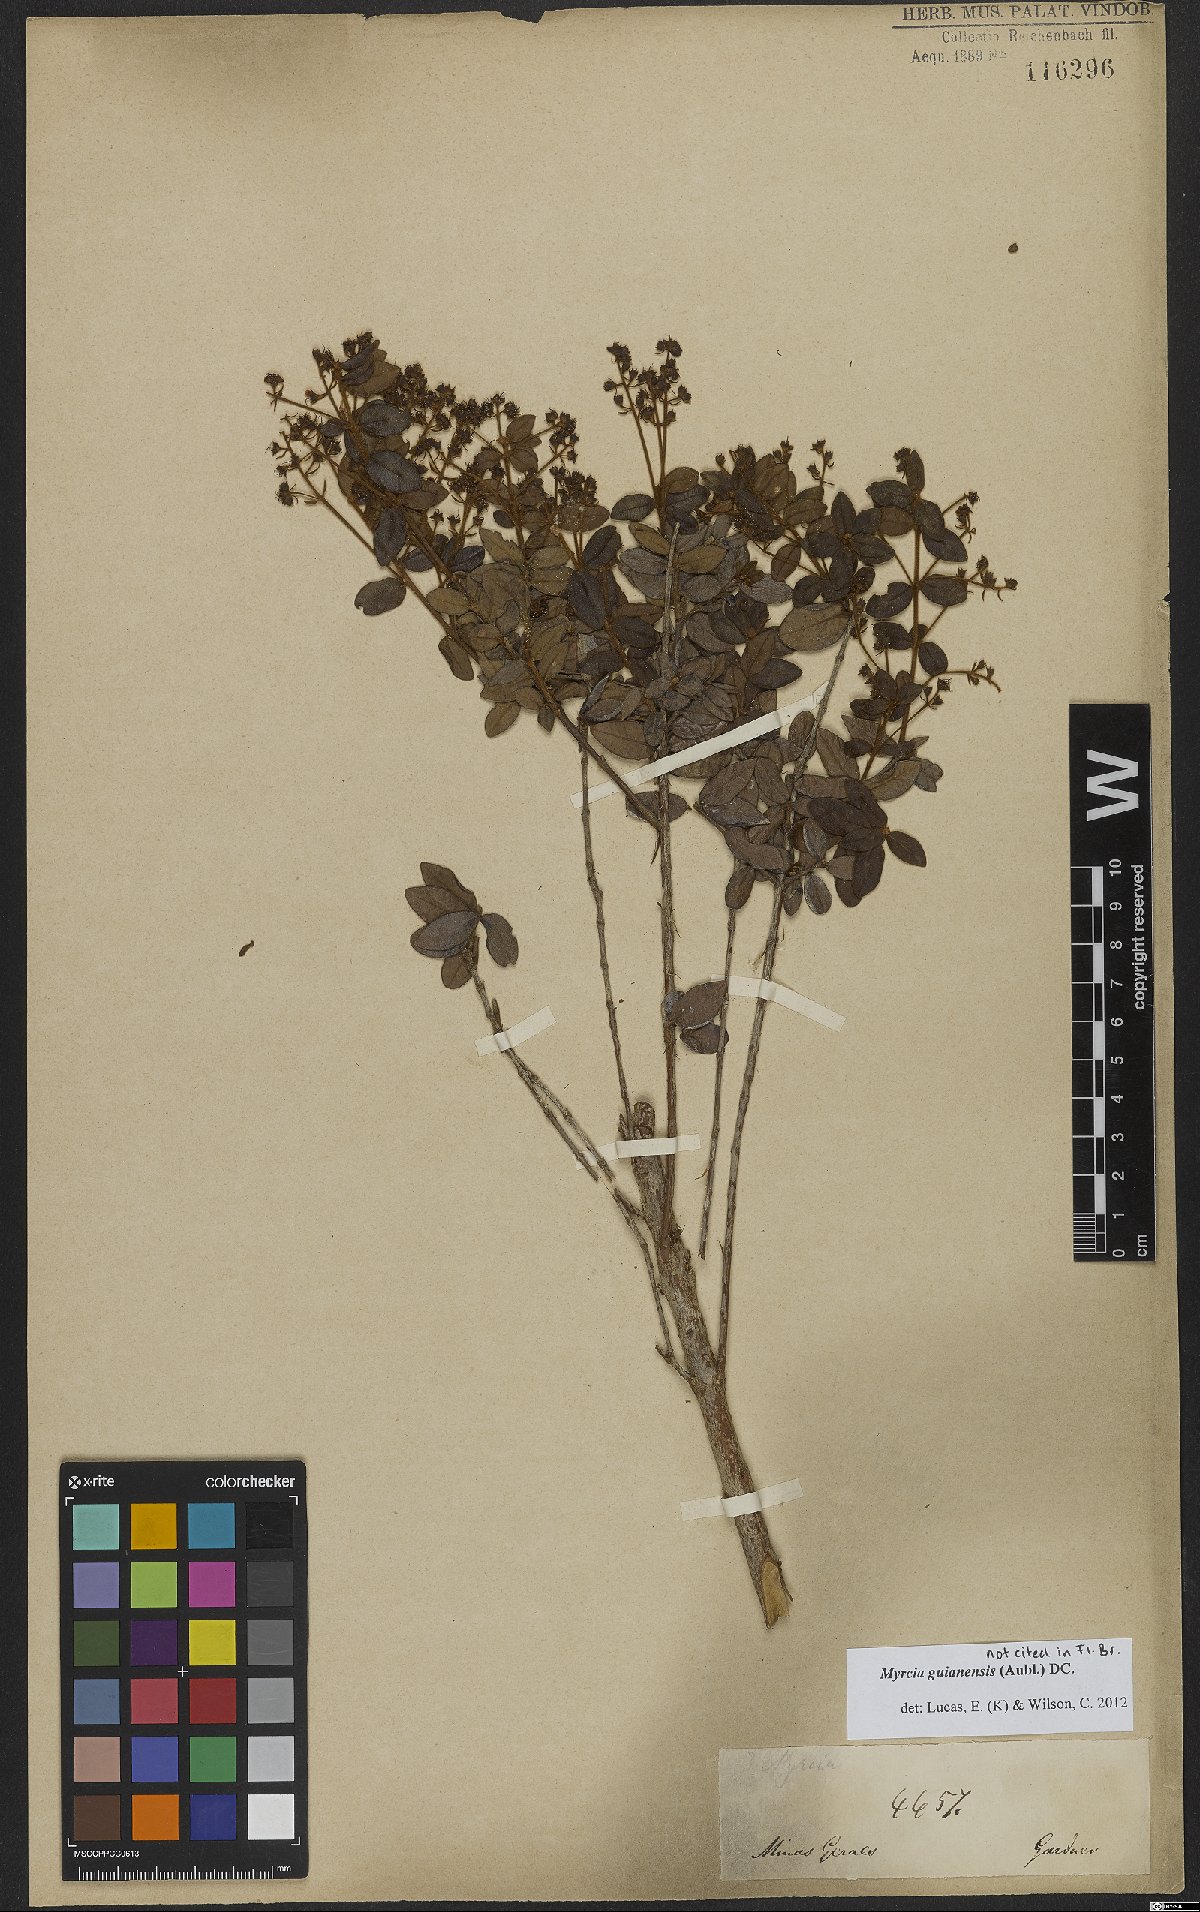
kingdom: Plantae
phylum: Tracheophyta
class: Magnoliopsida
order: Myrtales
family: Myrtaceae
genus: Myrcia
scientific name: Myrcia guianensis
